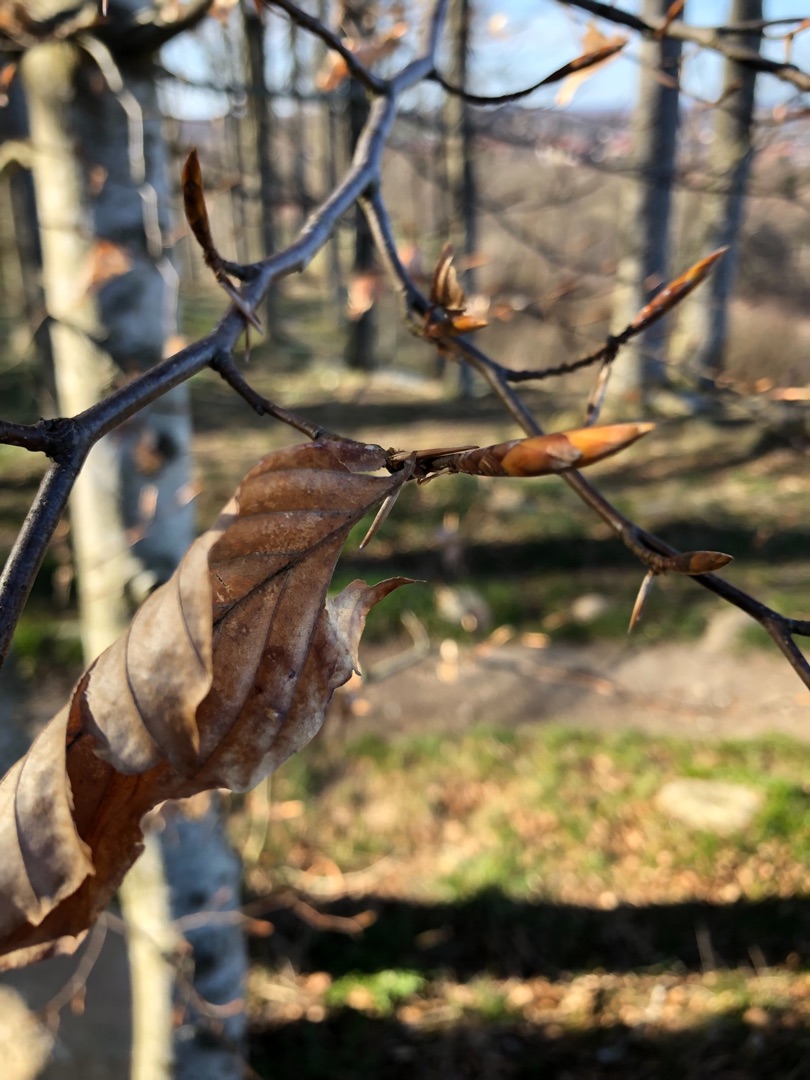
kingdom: Plantae
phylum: Tracheophyta
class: Magnoliopsida
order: Fagales
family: Fagaceae
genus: Fagus
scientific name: Fagus sylvatica
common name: Bøg
